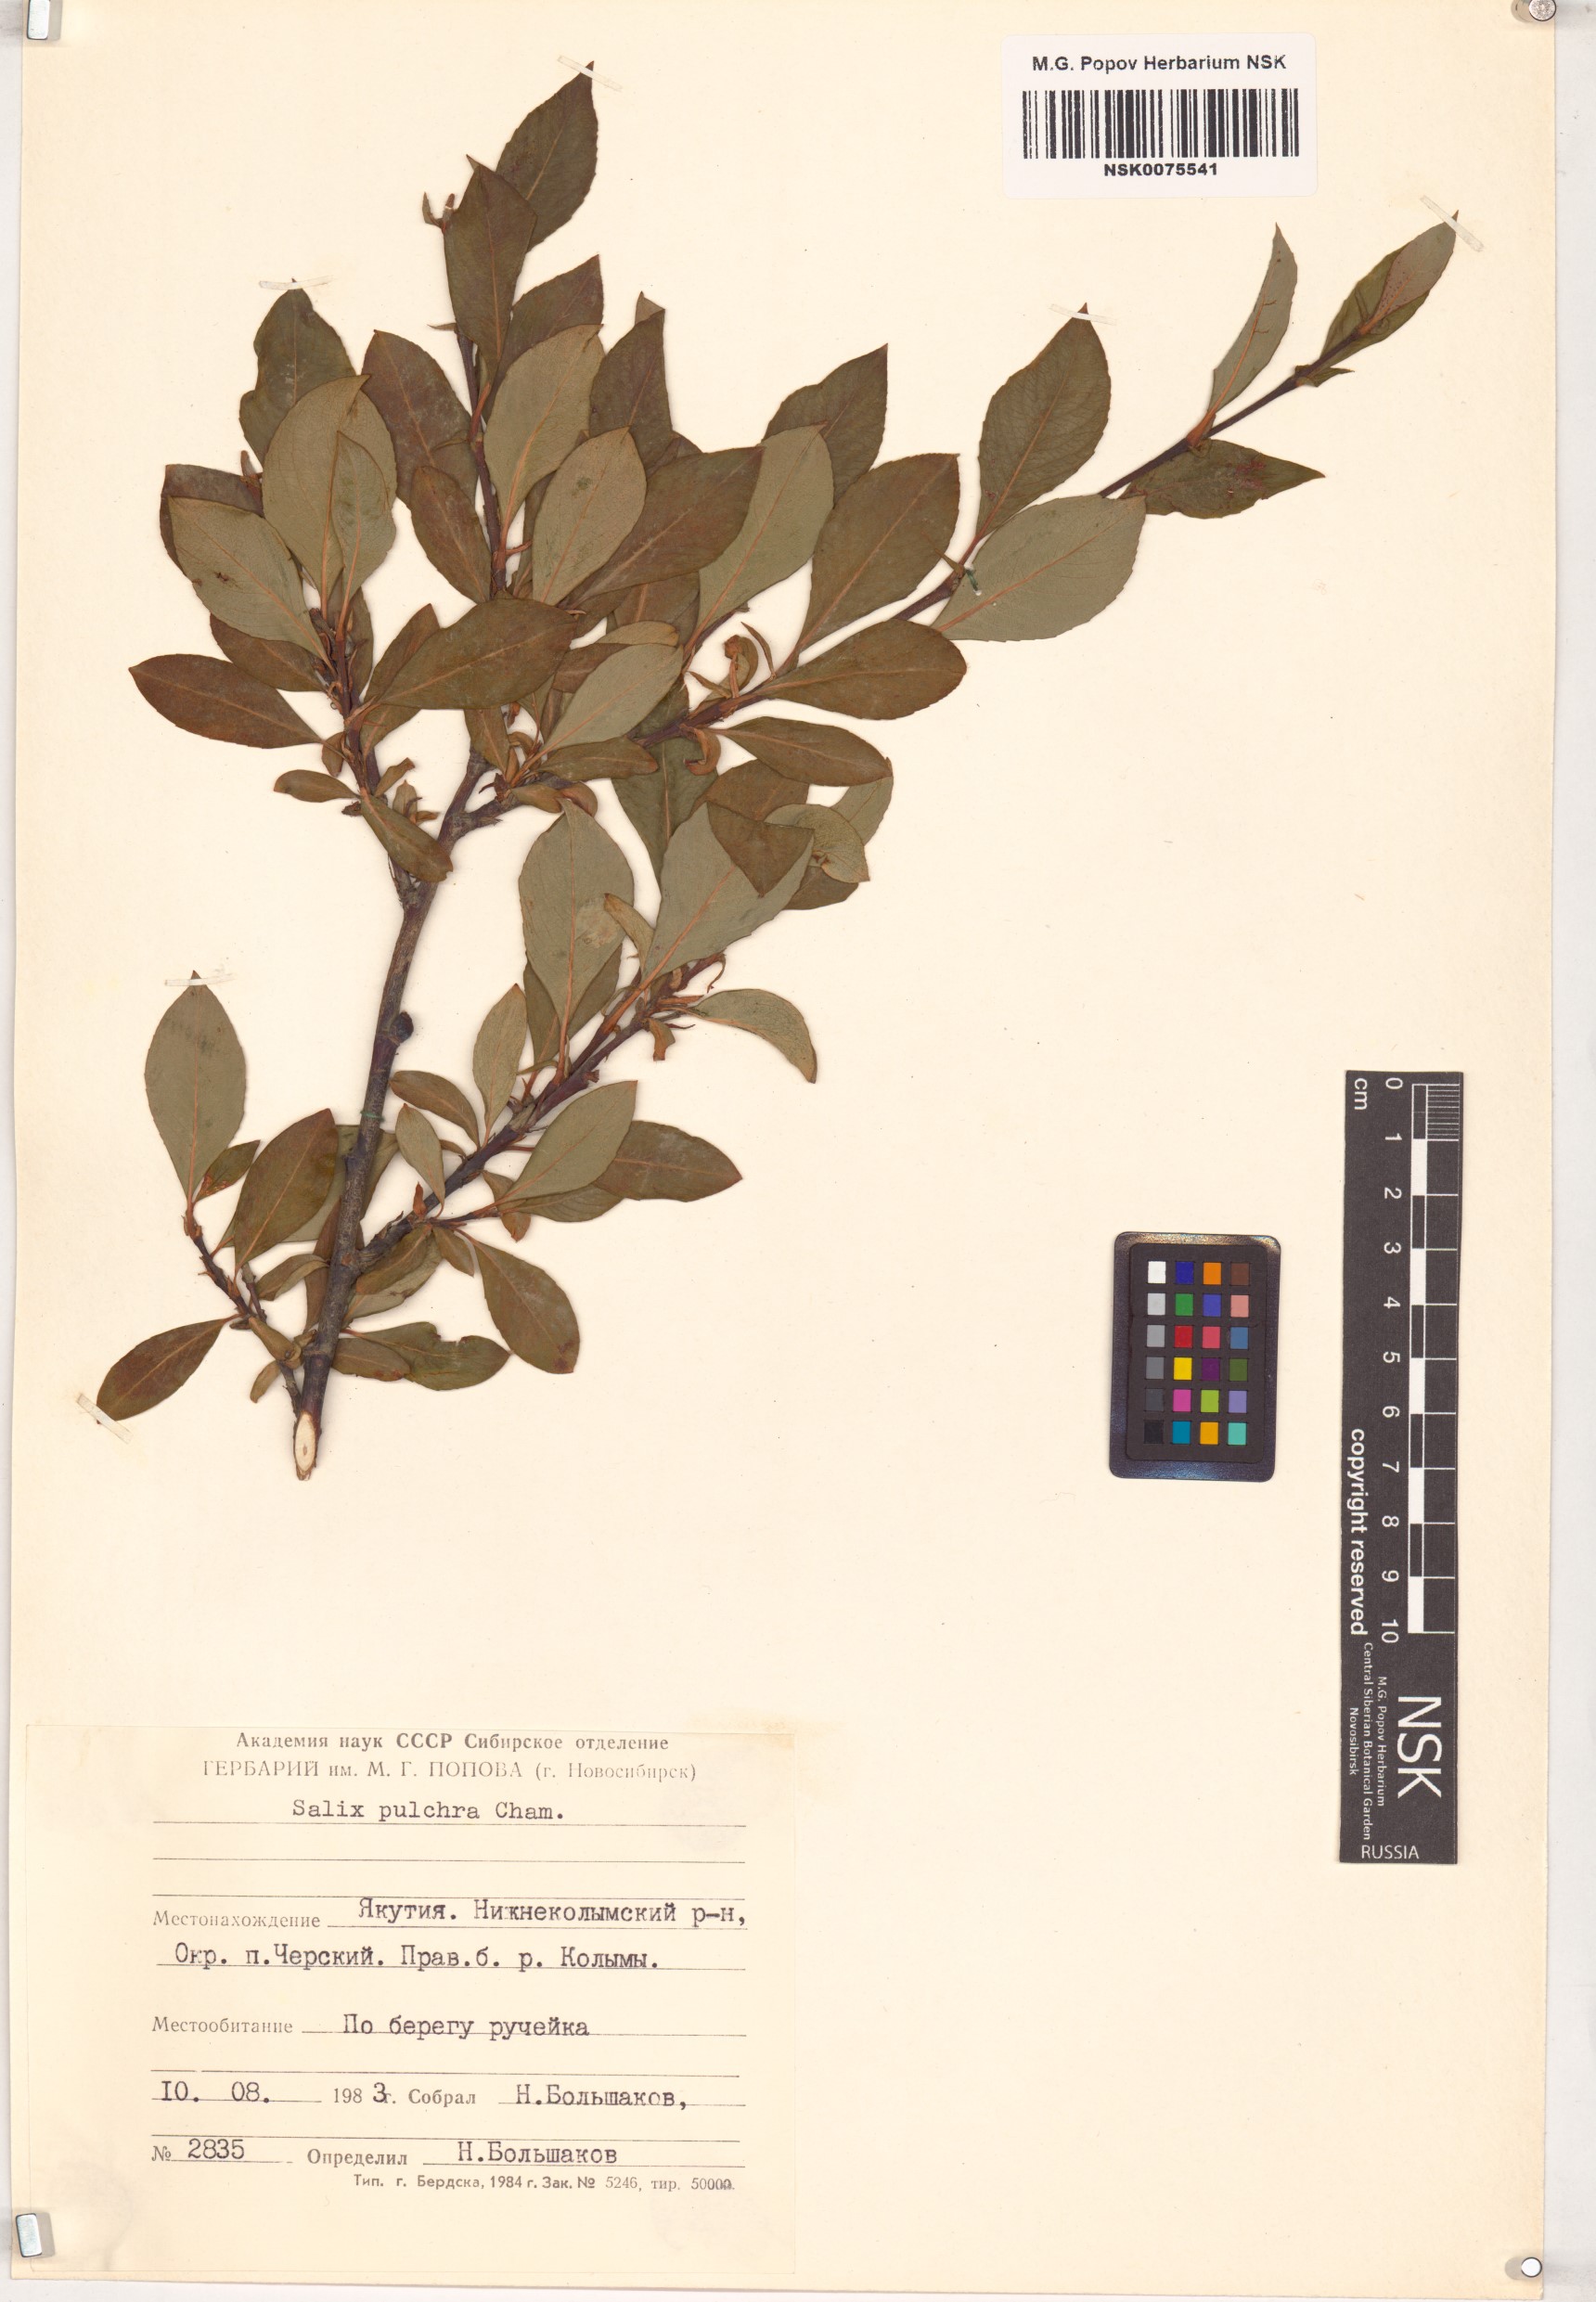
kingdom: Plantae
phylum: Tracheophyta
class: Magnoliopsida
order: Malpighiales
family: Salicaceae
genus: Salix
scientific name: Salix pulchra
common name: Diamond-leaved willow
